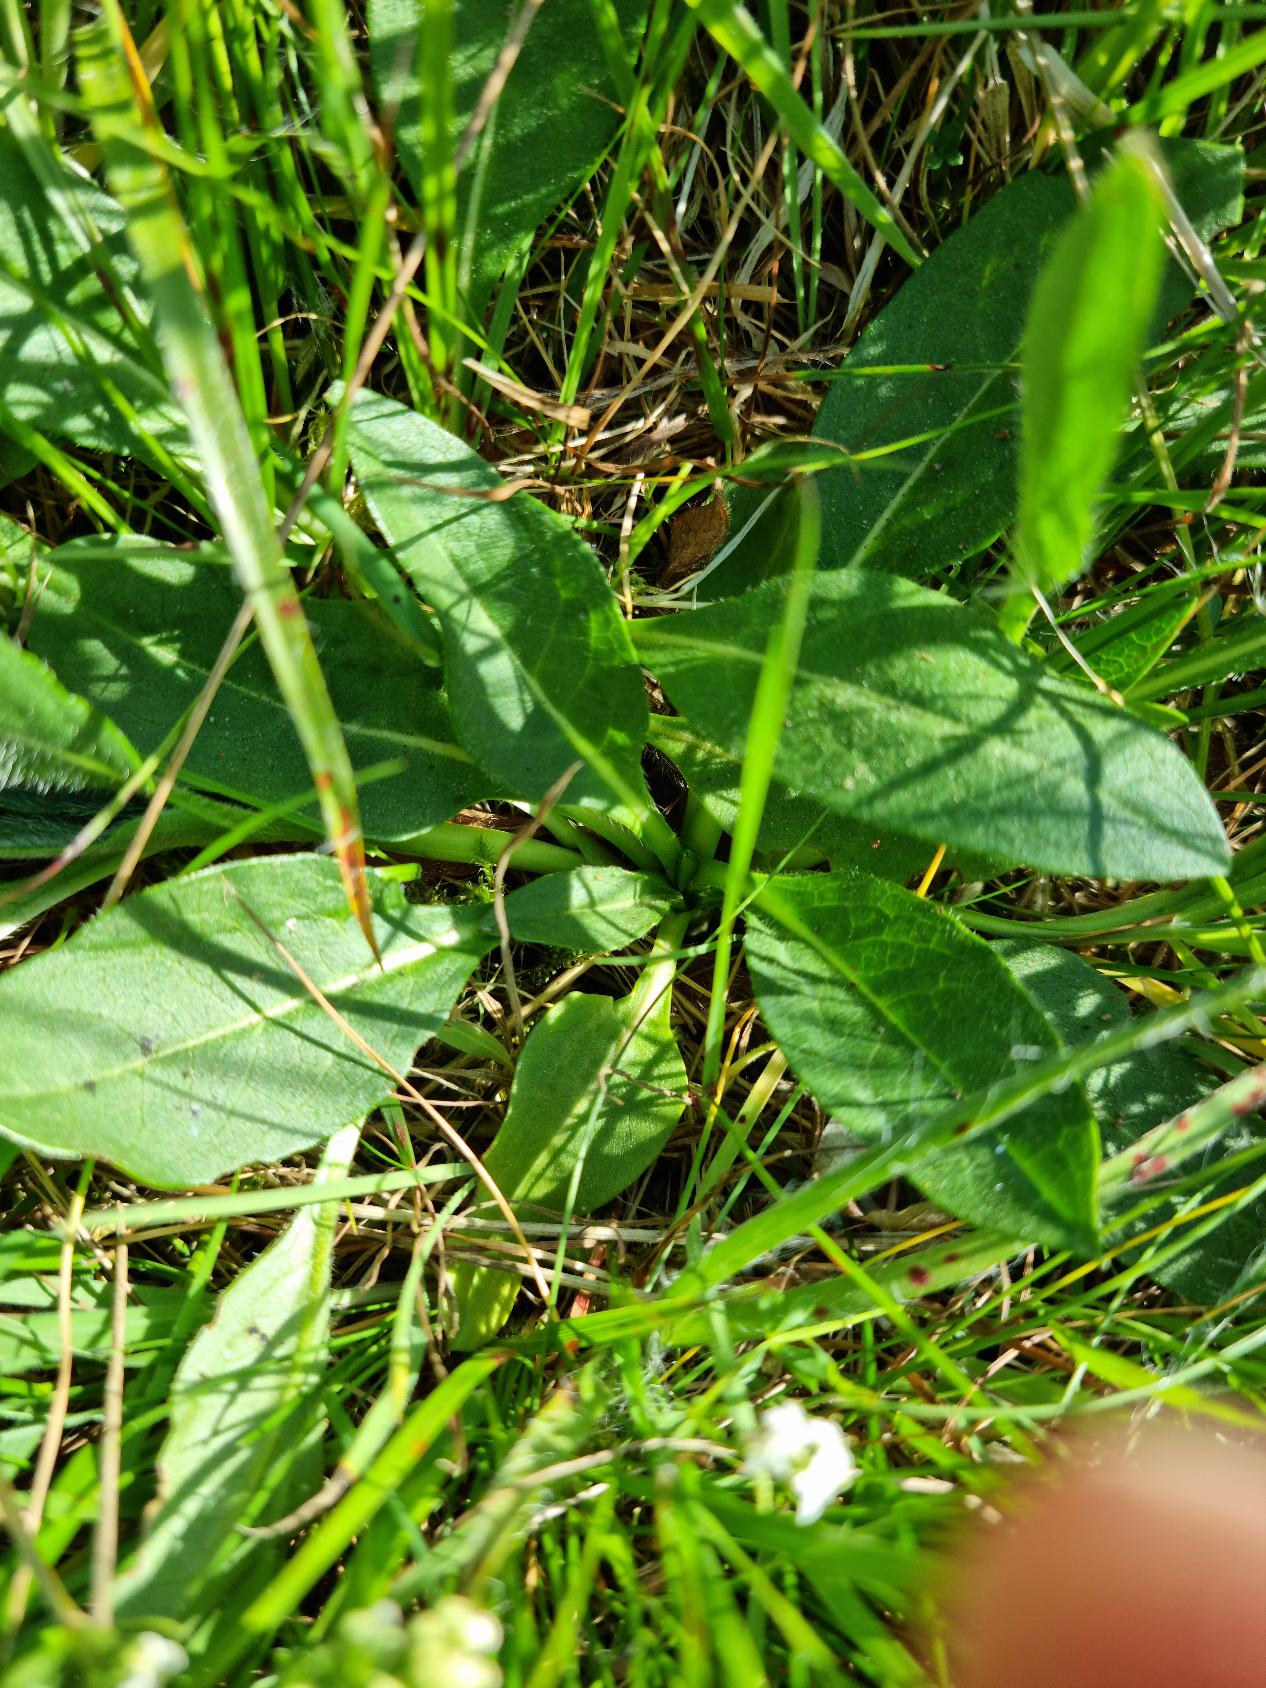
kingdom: Plantae
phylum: Tracheophyta
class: Magnoliopsida
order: Dipsacales
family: Caprifoliaceae
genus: Succisa
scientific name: Succisa pratensis
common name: Djævelsbid
